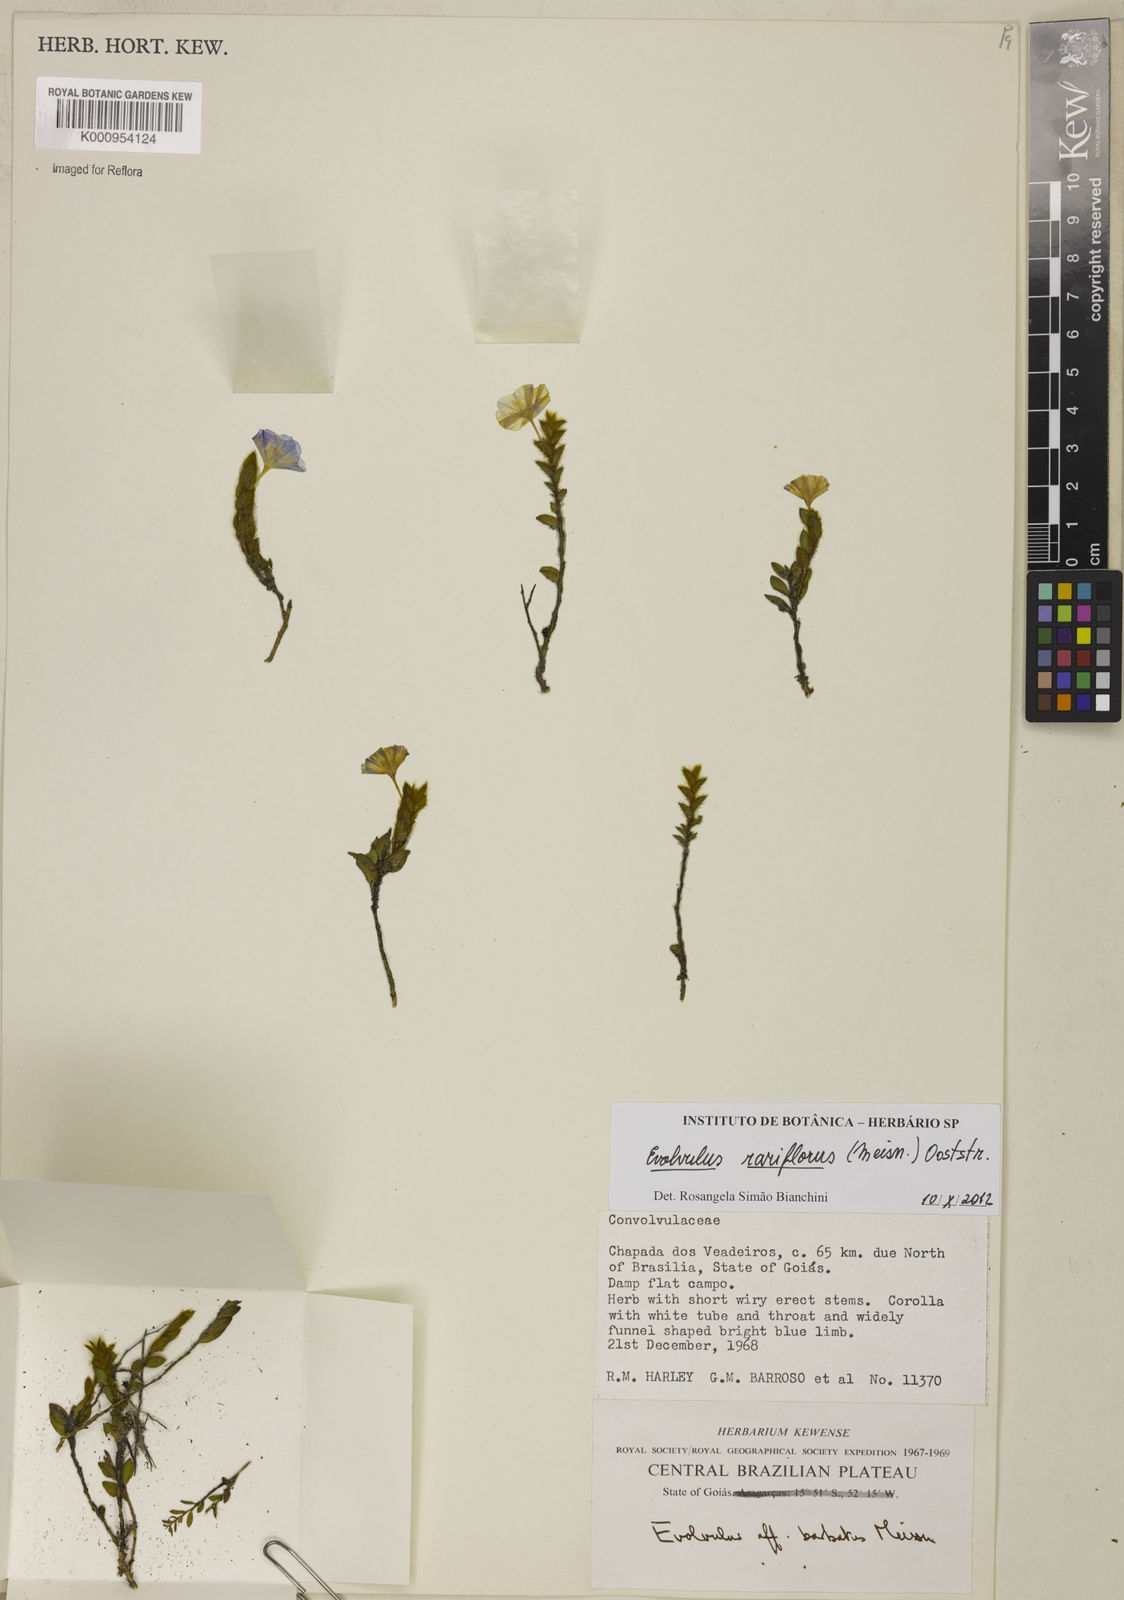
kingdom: Plantae
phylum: Tracheophyta
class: Magnoliopsida
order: Solanales
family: Convolvulaceae
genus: Evolvulus
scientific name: Evolvulus rariflorus
